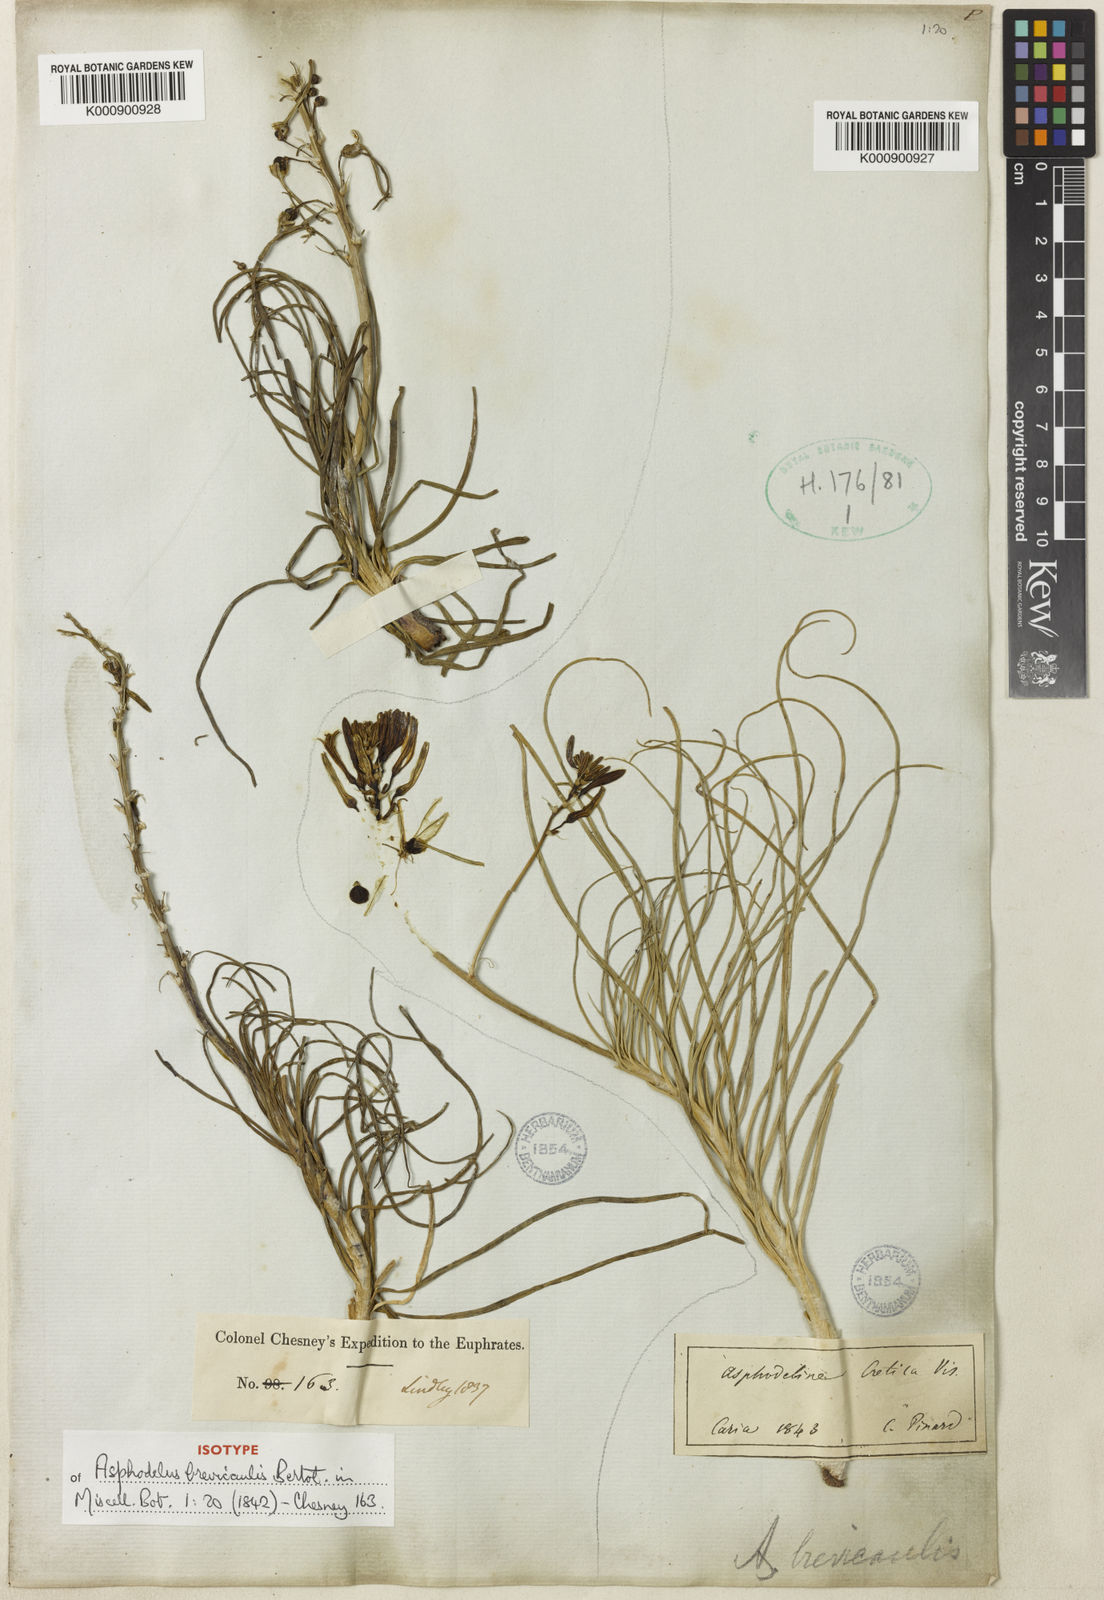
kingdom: Plantae
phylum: Tracheophyta
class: Liliopsida
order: Asparagales
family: Asphodelaceae
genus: Asphodeline
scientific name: Asphodeline brevicaulis
